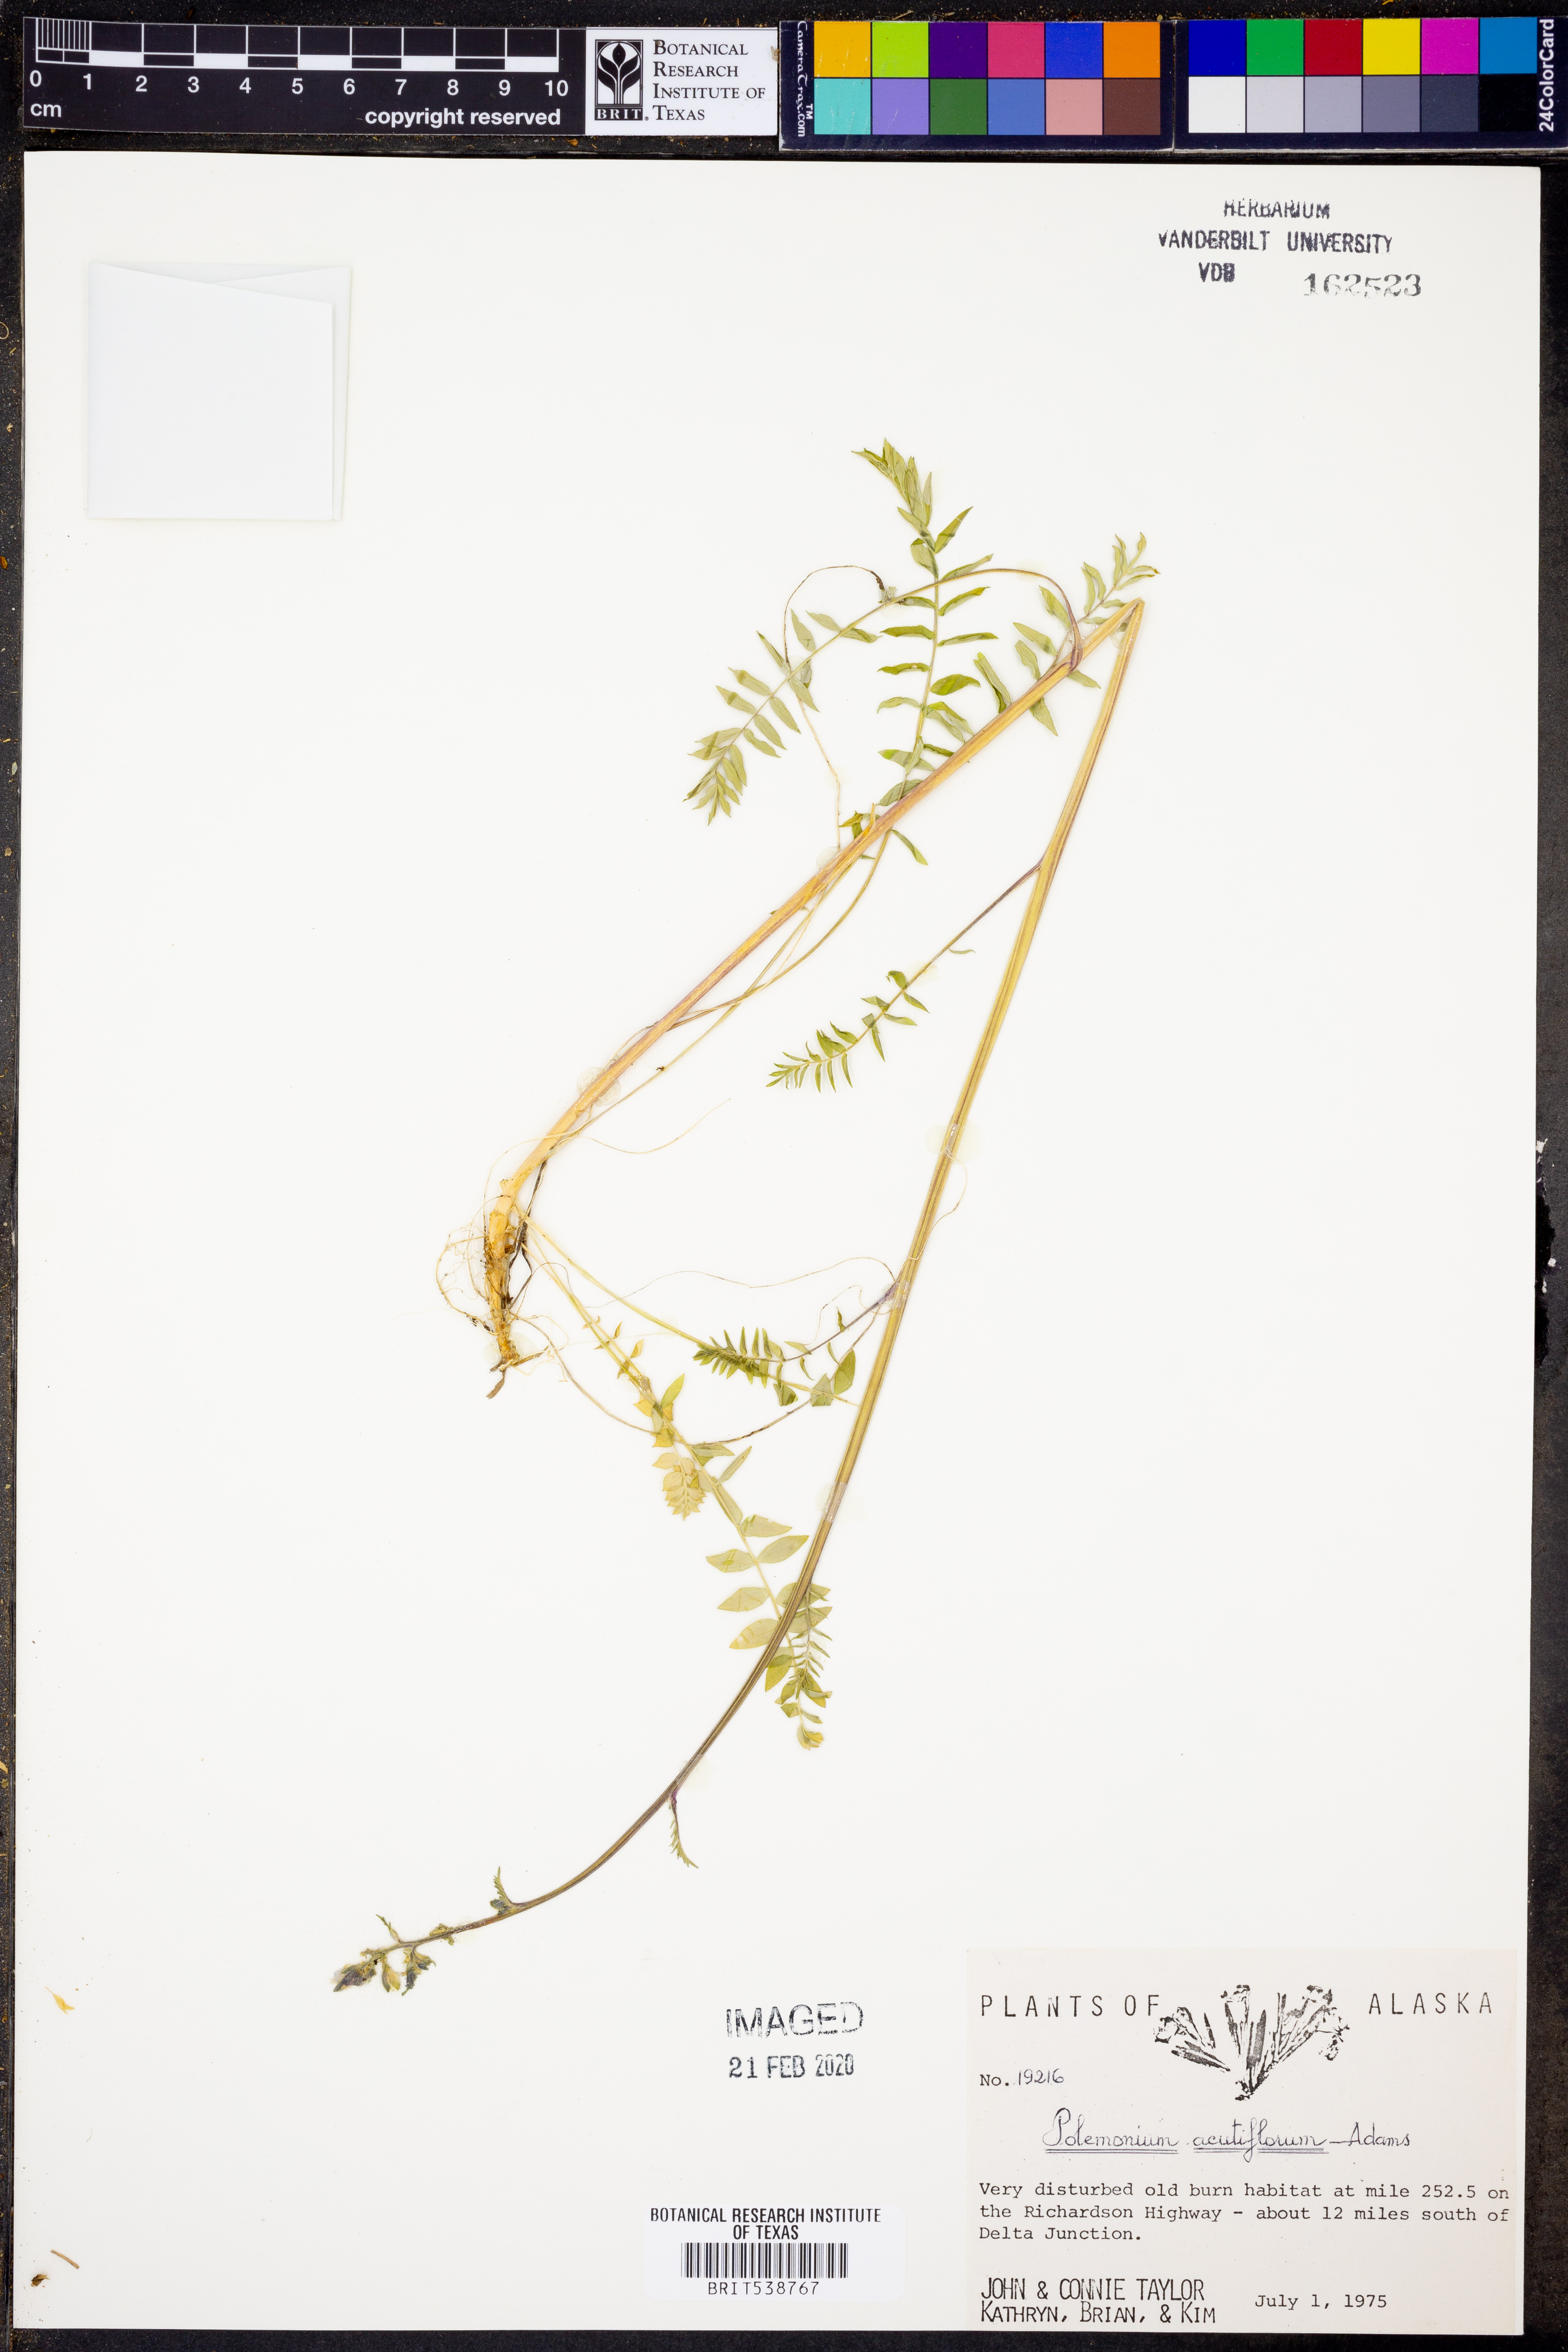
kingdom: Plantae
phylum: Tracheophyta
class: Magnoliopsida
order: Ericales
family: Polemoniaceae
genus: Polemonium
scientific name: Polemonium acutiflorum
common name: Tall jacob's-ladder
